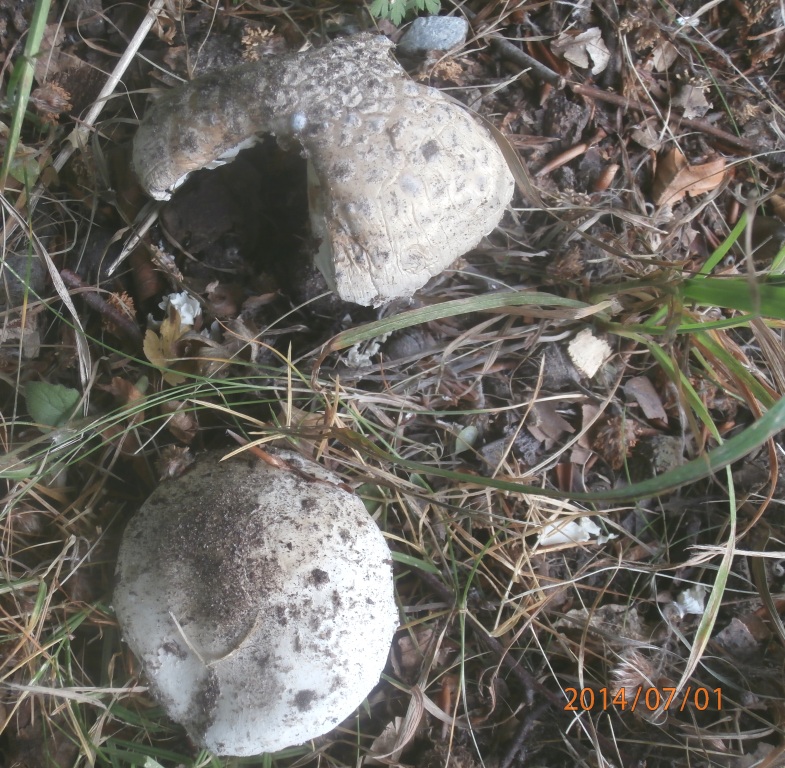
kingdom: Fungi
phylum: Basidiomycota
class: Agaricomycetes
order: Agaricales
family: Amanitaceae
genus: Amanita
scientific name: Amanita
